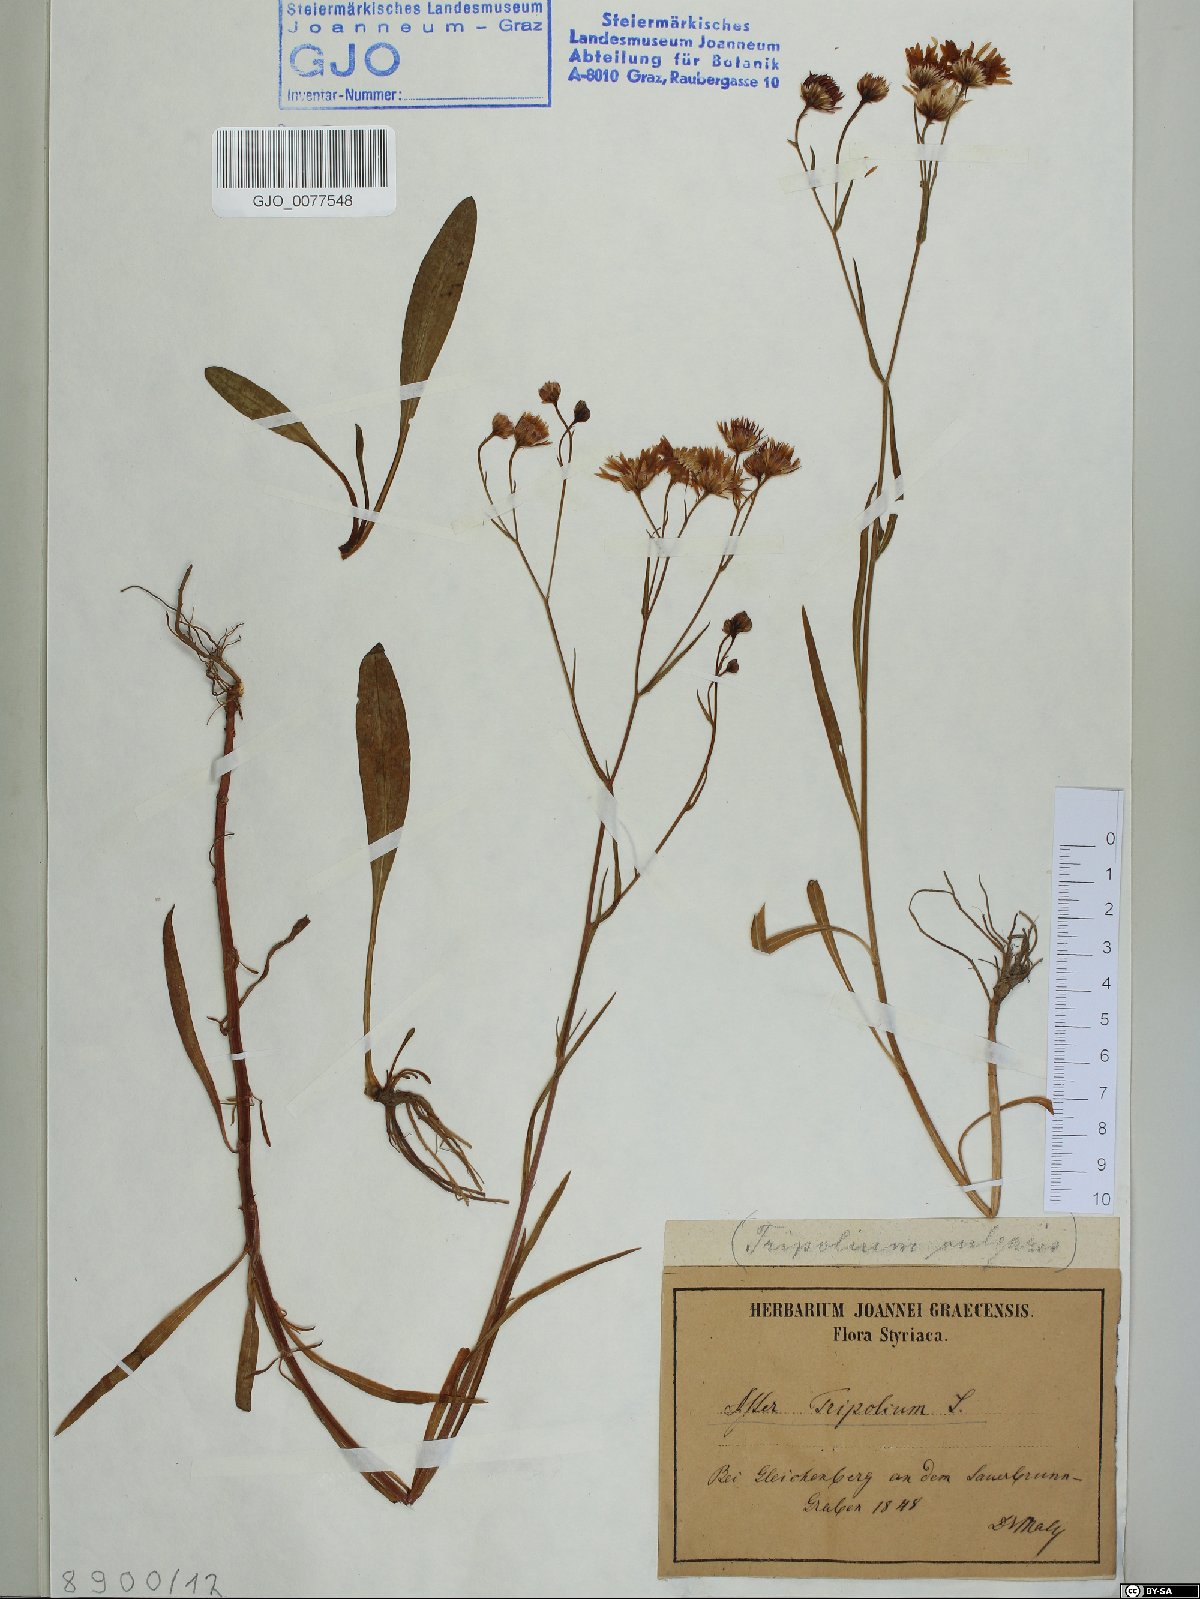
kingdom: Plantae
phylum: Tracheophyta
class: Magnoliopsida
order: Asterales
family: Asteraceae
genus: Tripolium
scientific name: Tripolium pannonicum
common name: Sea aster
